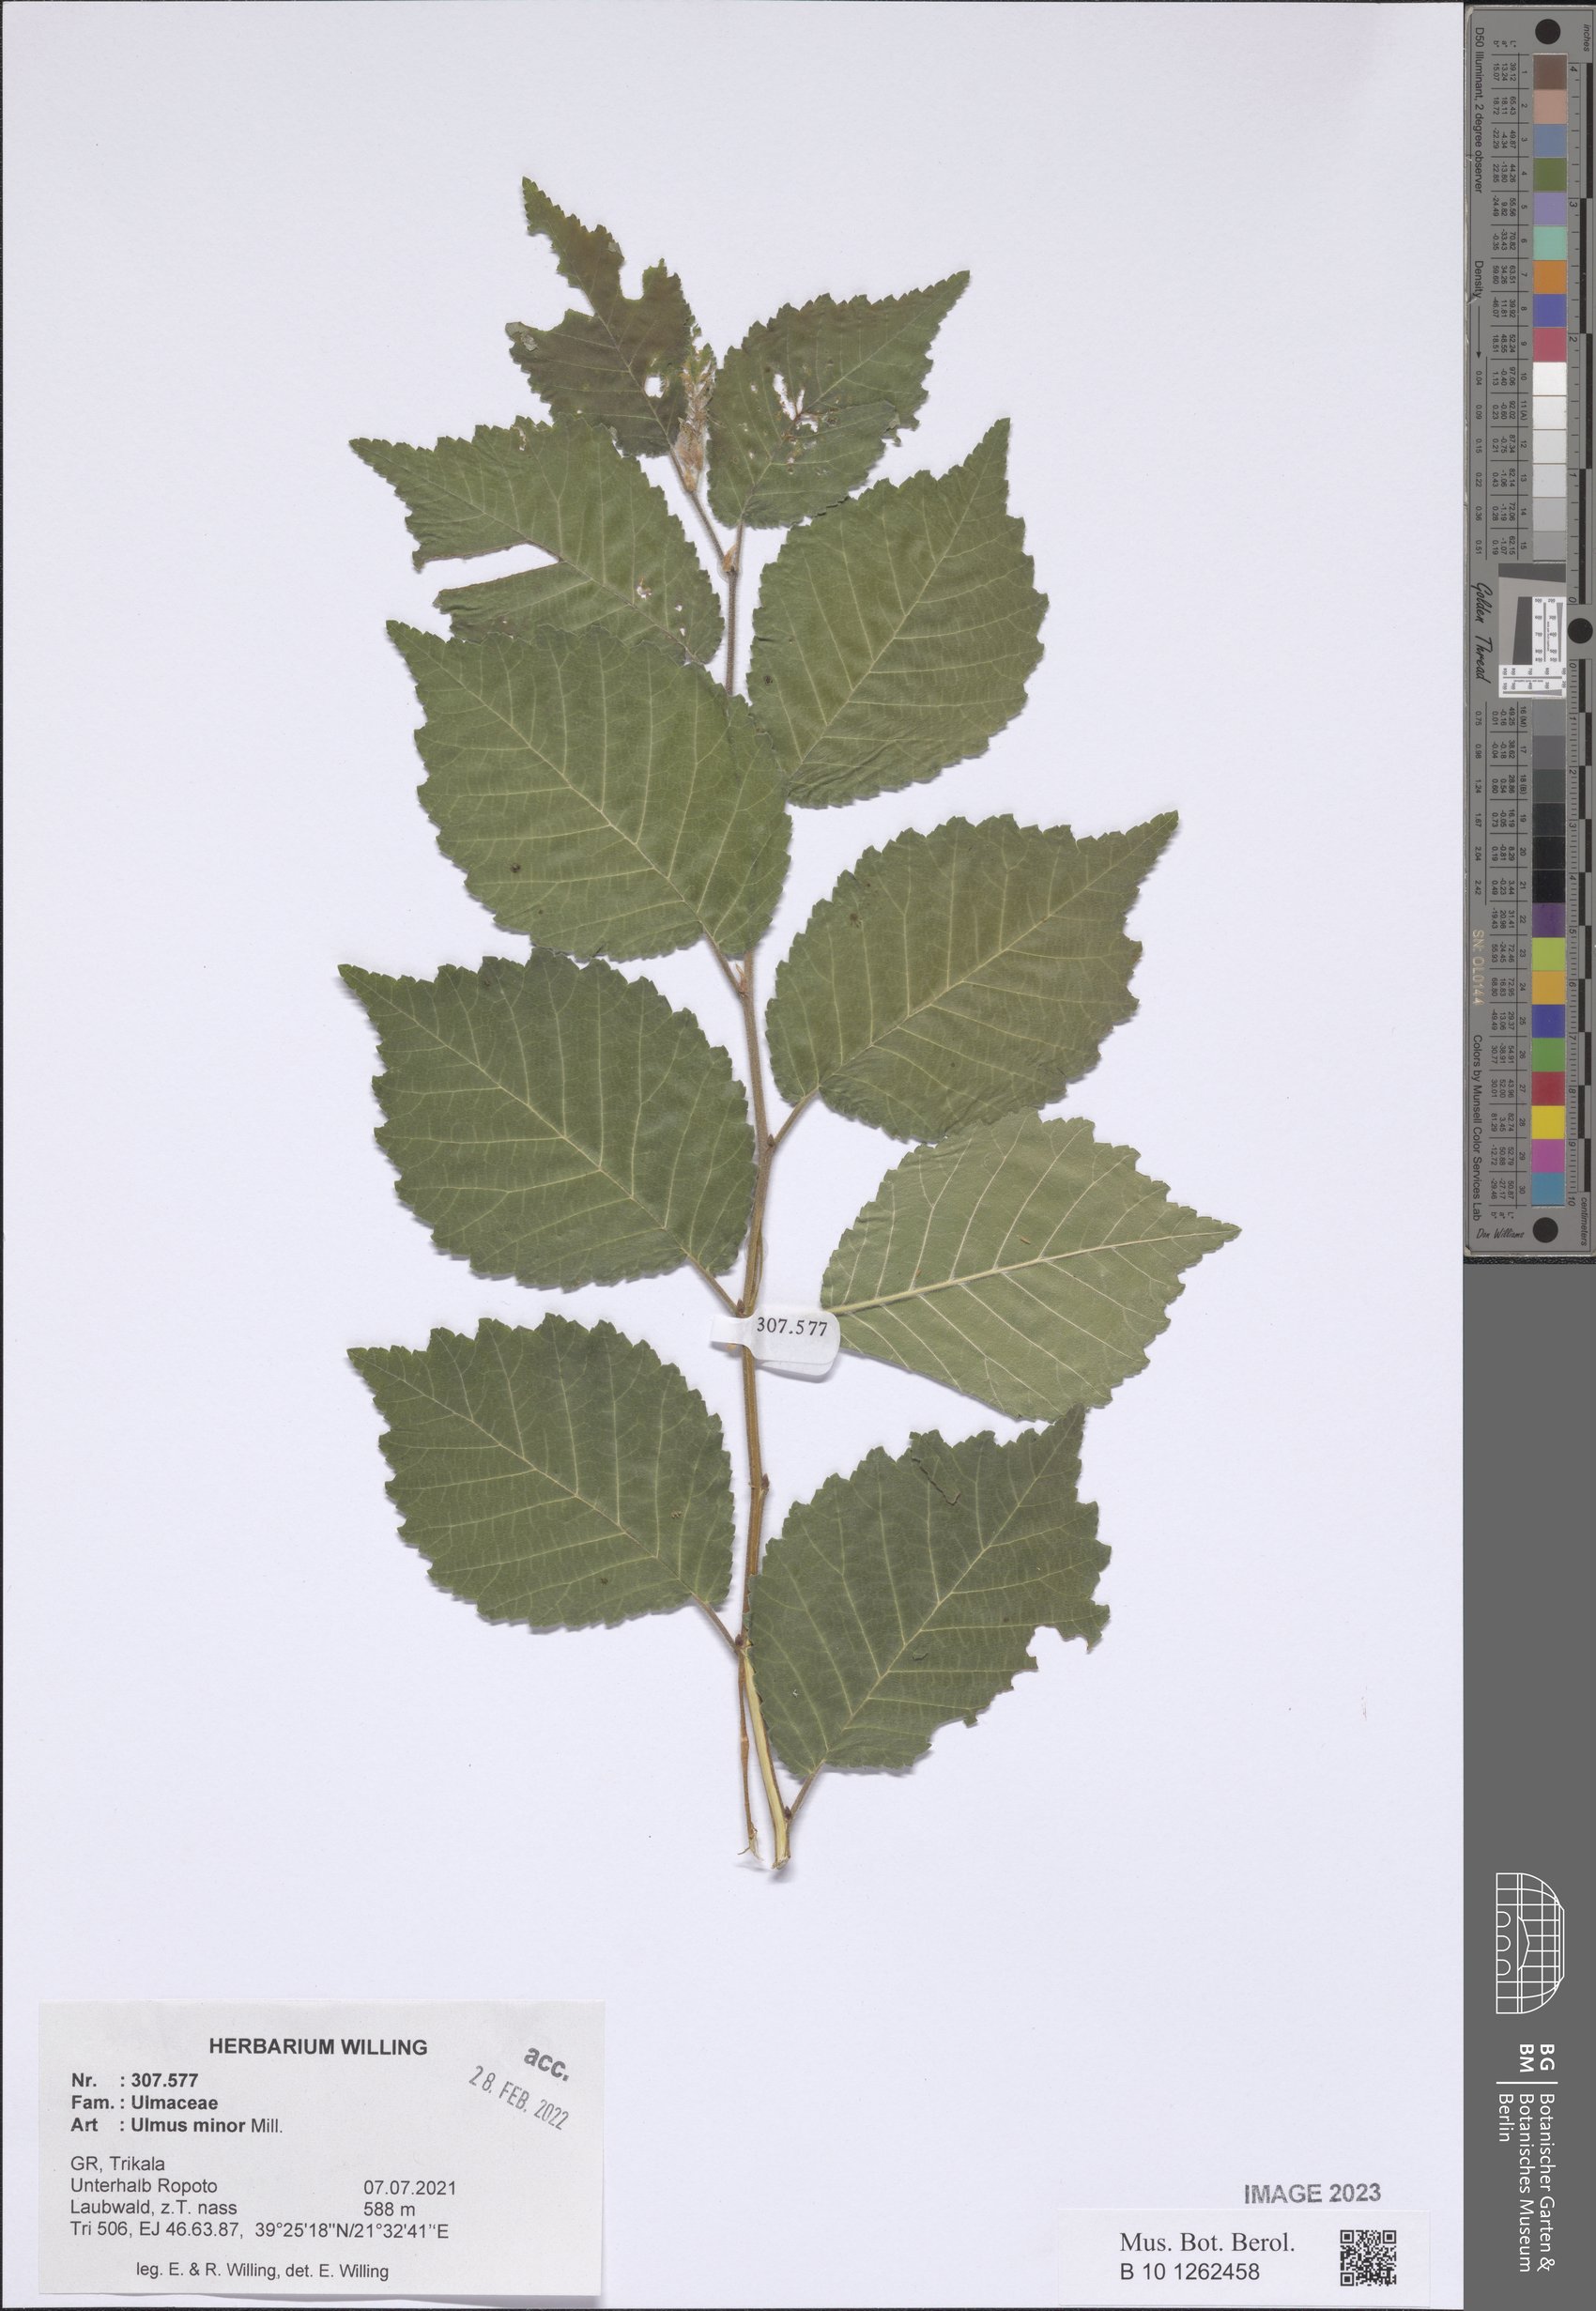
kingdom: Plantae
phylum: Tracheophyta
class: Magnoliopsida
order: Rosales
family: Ulmaceae
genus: Ulmus
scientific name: Ulmus minor
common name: Small-leaved elm
